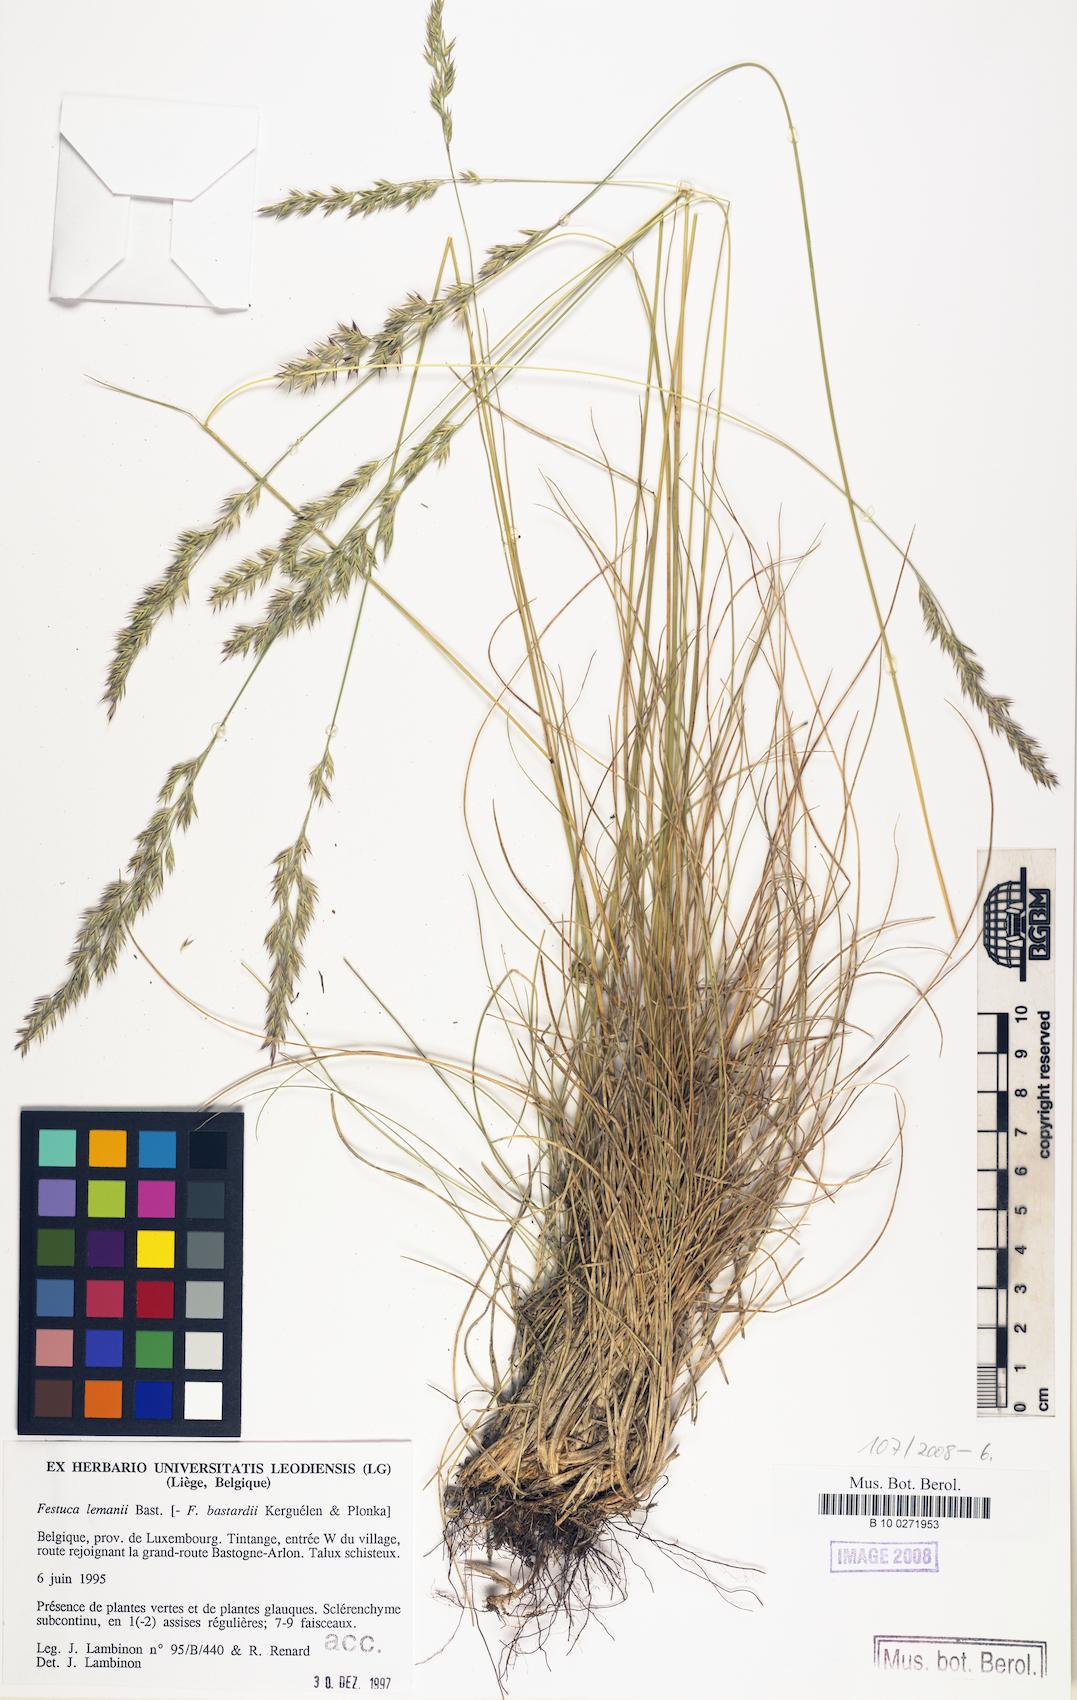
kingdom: Plantae
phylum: Tracheophyta
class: Liliopsida
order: Poales
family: Poaceae
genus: Festuca
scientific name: Festuca lemanii
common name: Confused fescue
